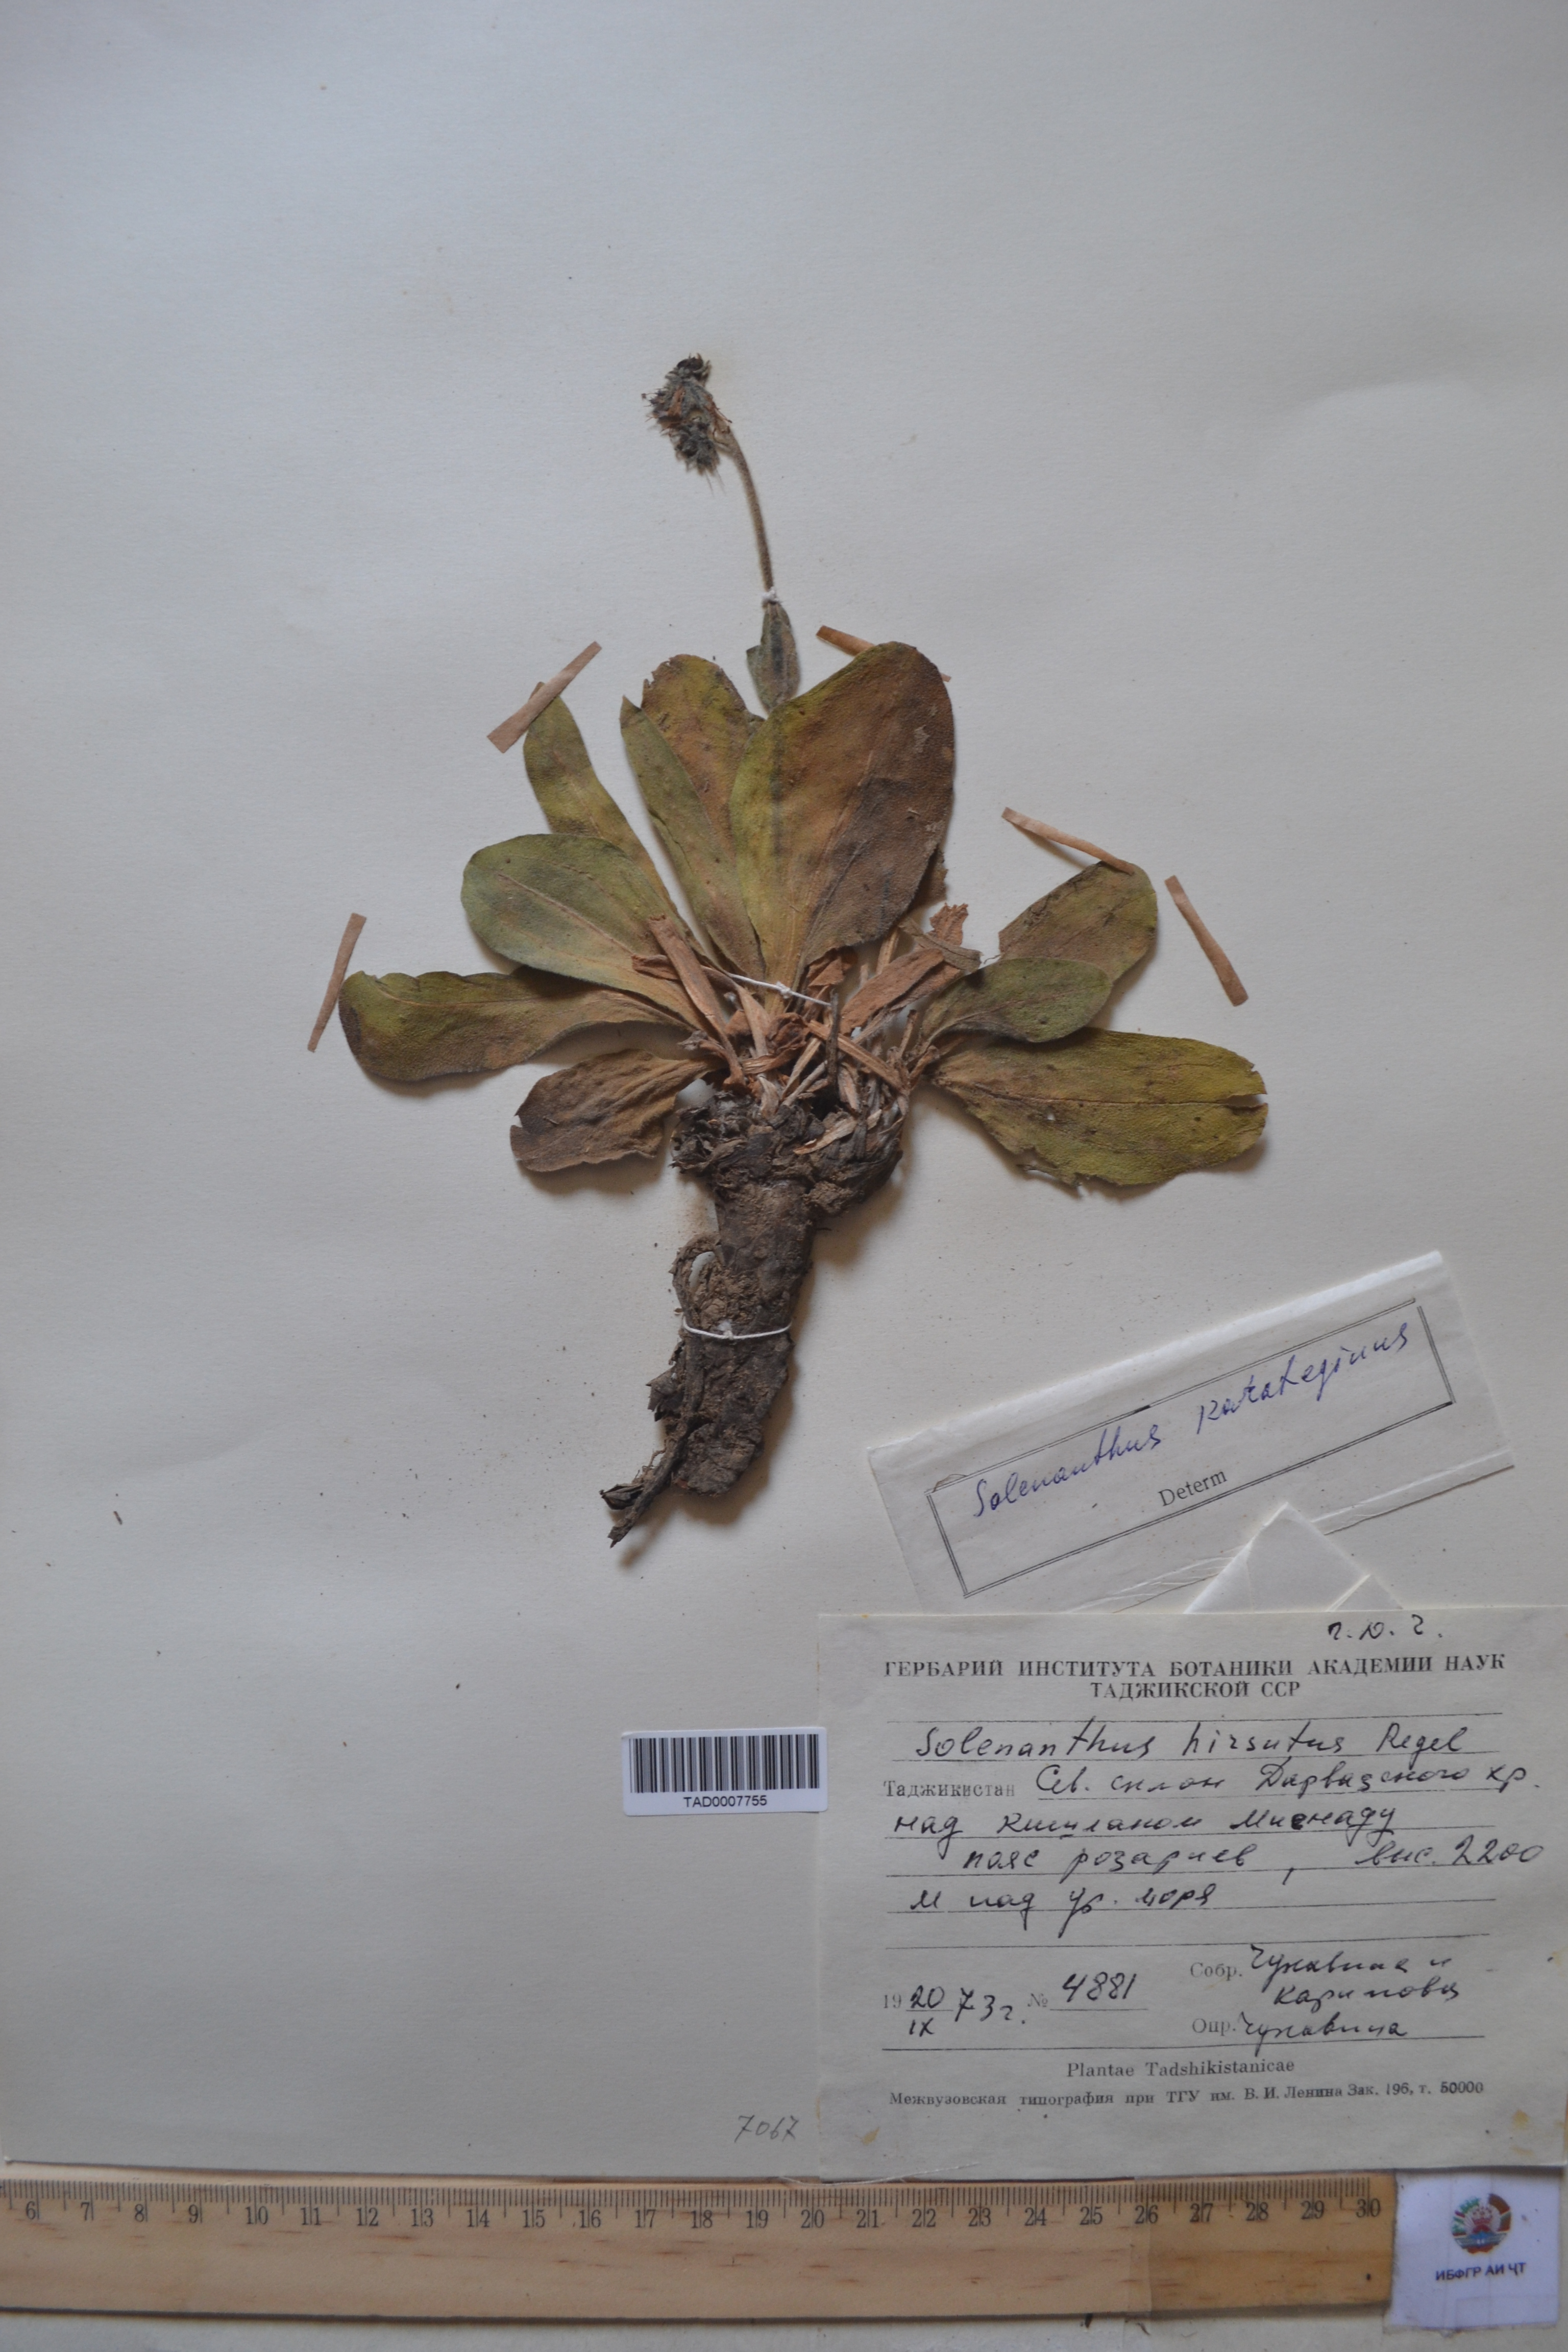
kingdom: Plantae
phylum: Tracheophyta
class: Magnoliopsida
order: Boraginales
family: Boraginaceae
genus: Solenanthus
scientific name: Solenanthus karateginus
